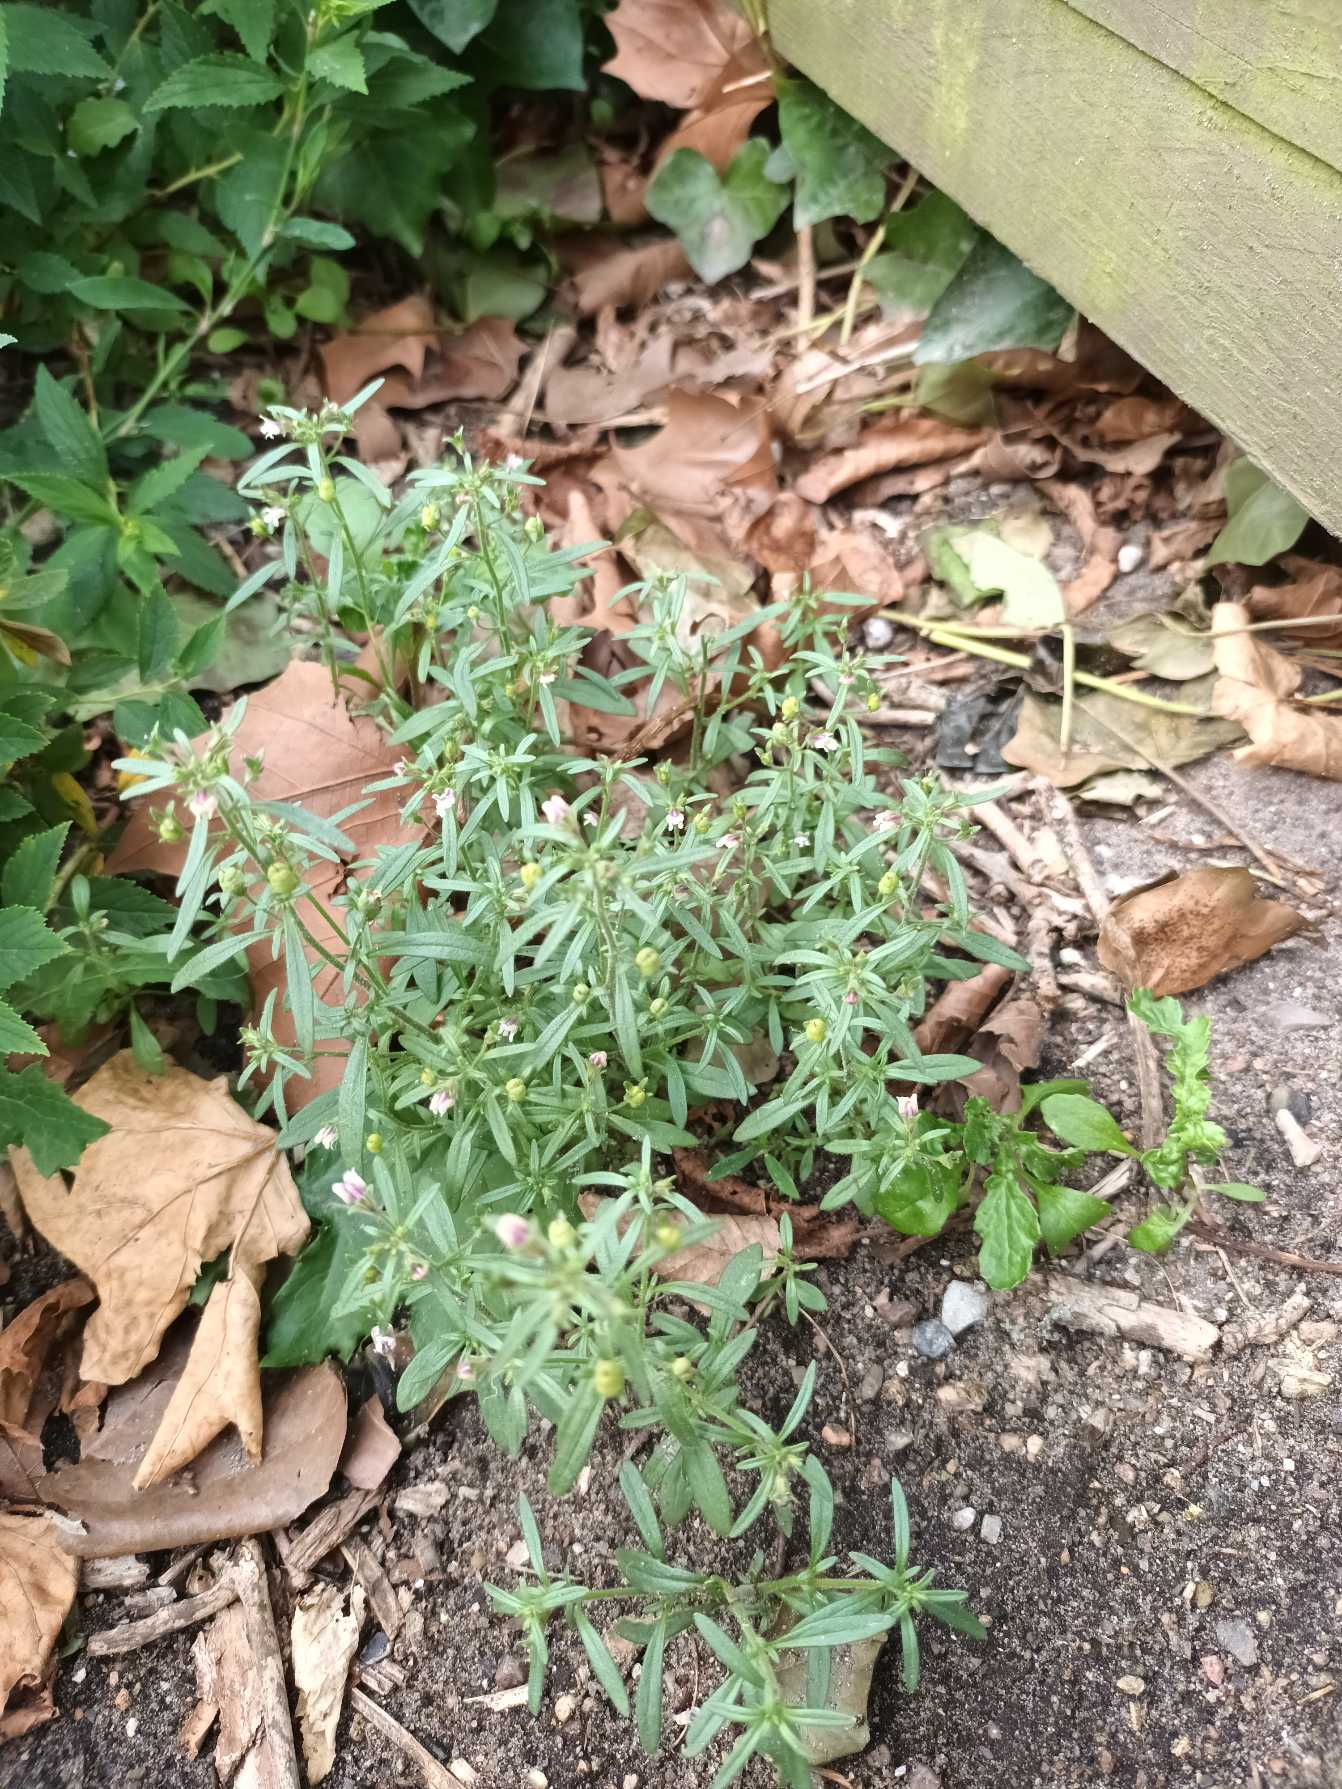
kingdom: Plantae
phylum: Tracheophyta
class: Magnoliopsida
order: Lamiales
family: Plantaginaceae
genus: Chaenorhinum
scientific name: Chaenorhinum minus
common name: Liden torskemund
